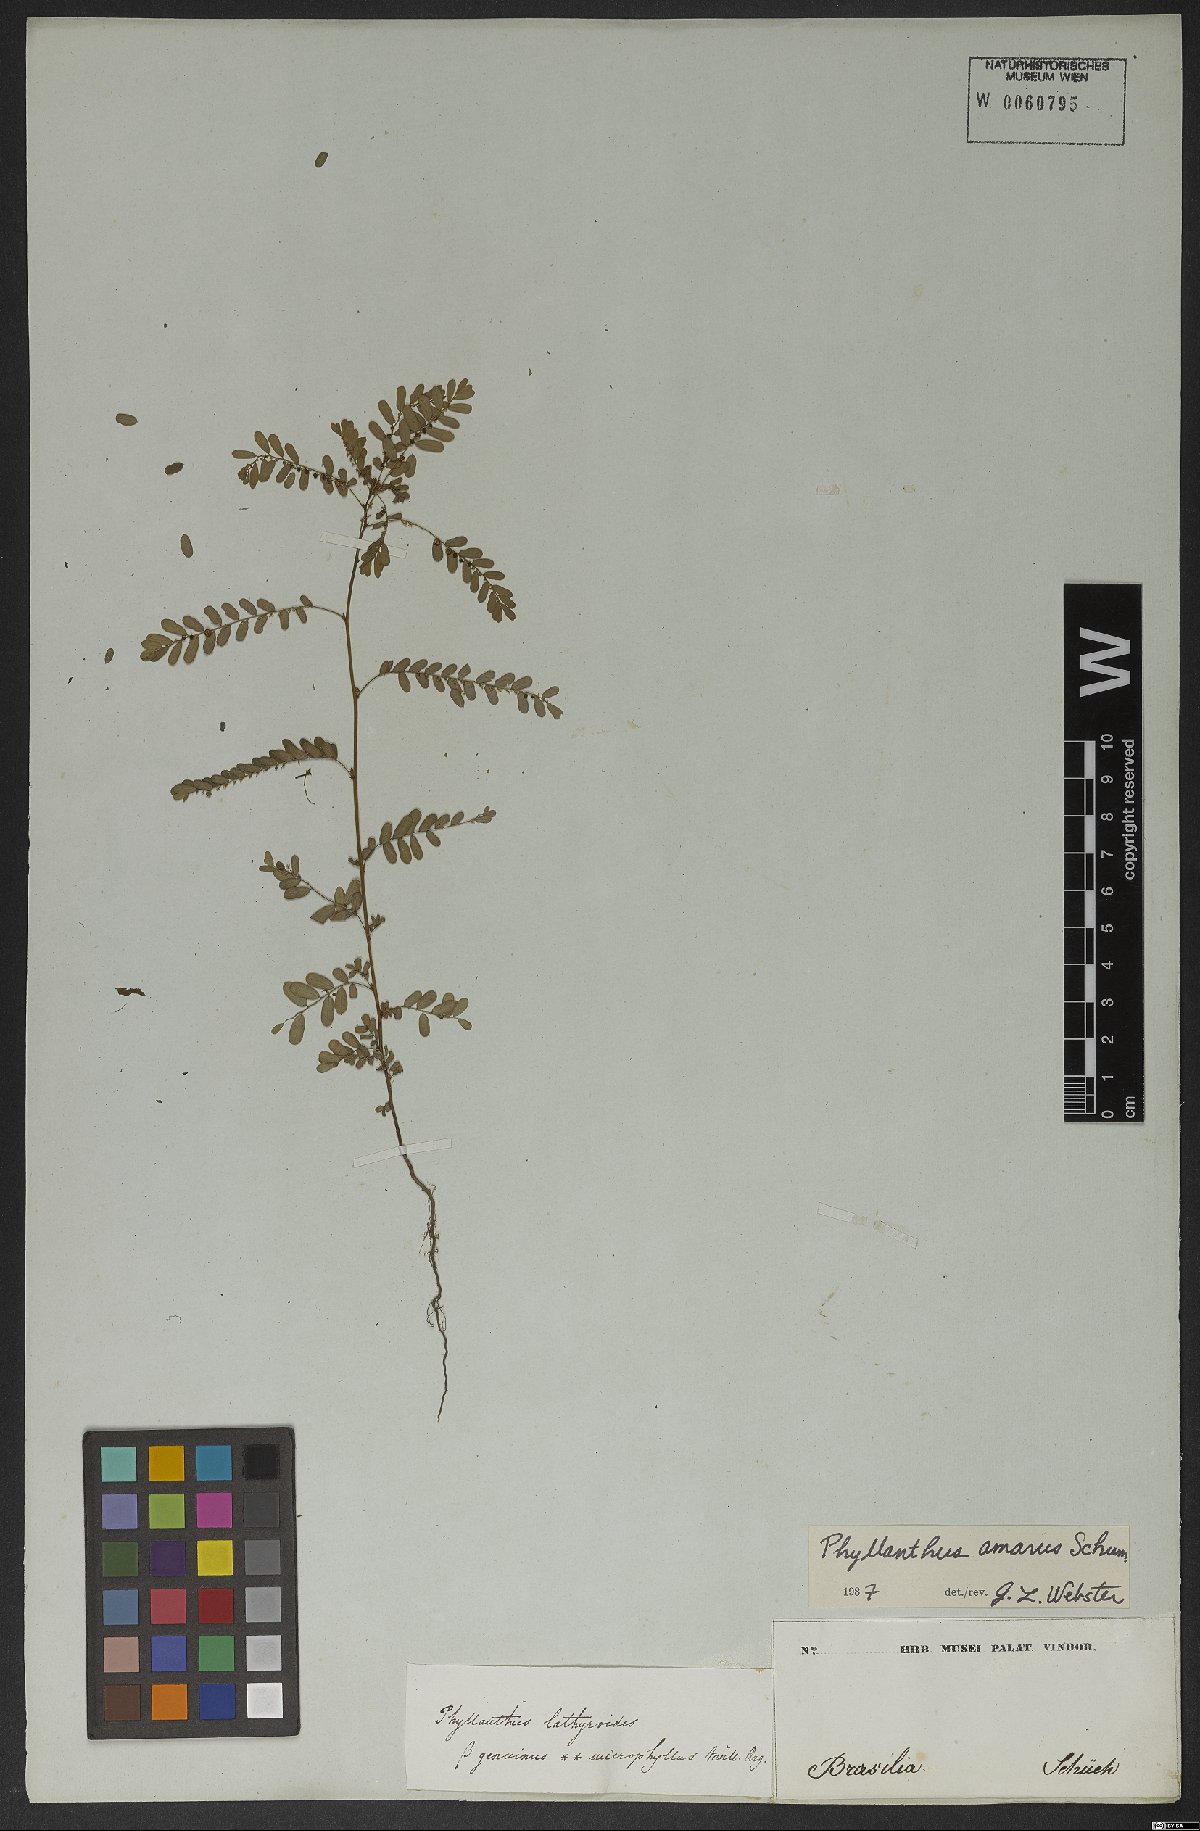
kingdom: Plantae
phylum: Tracheophyta
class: Magnoliopsida
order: Malpighiales
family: Phyllanthaceae
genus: Phyllanthus
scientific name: Phyllanthus amarus
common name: Carry me seed
